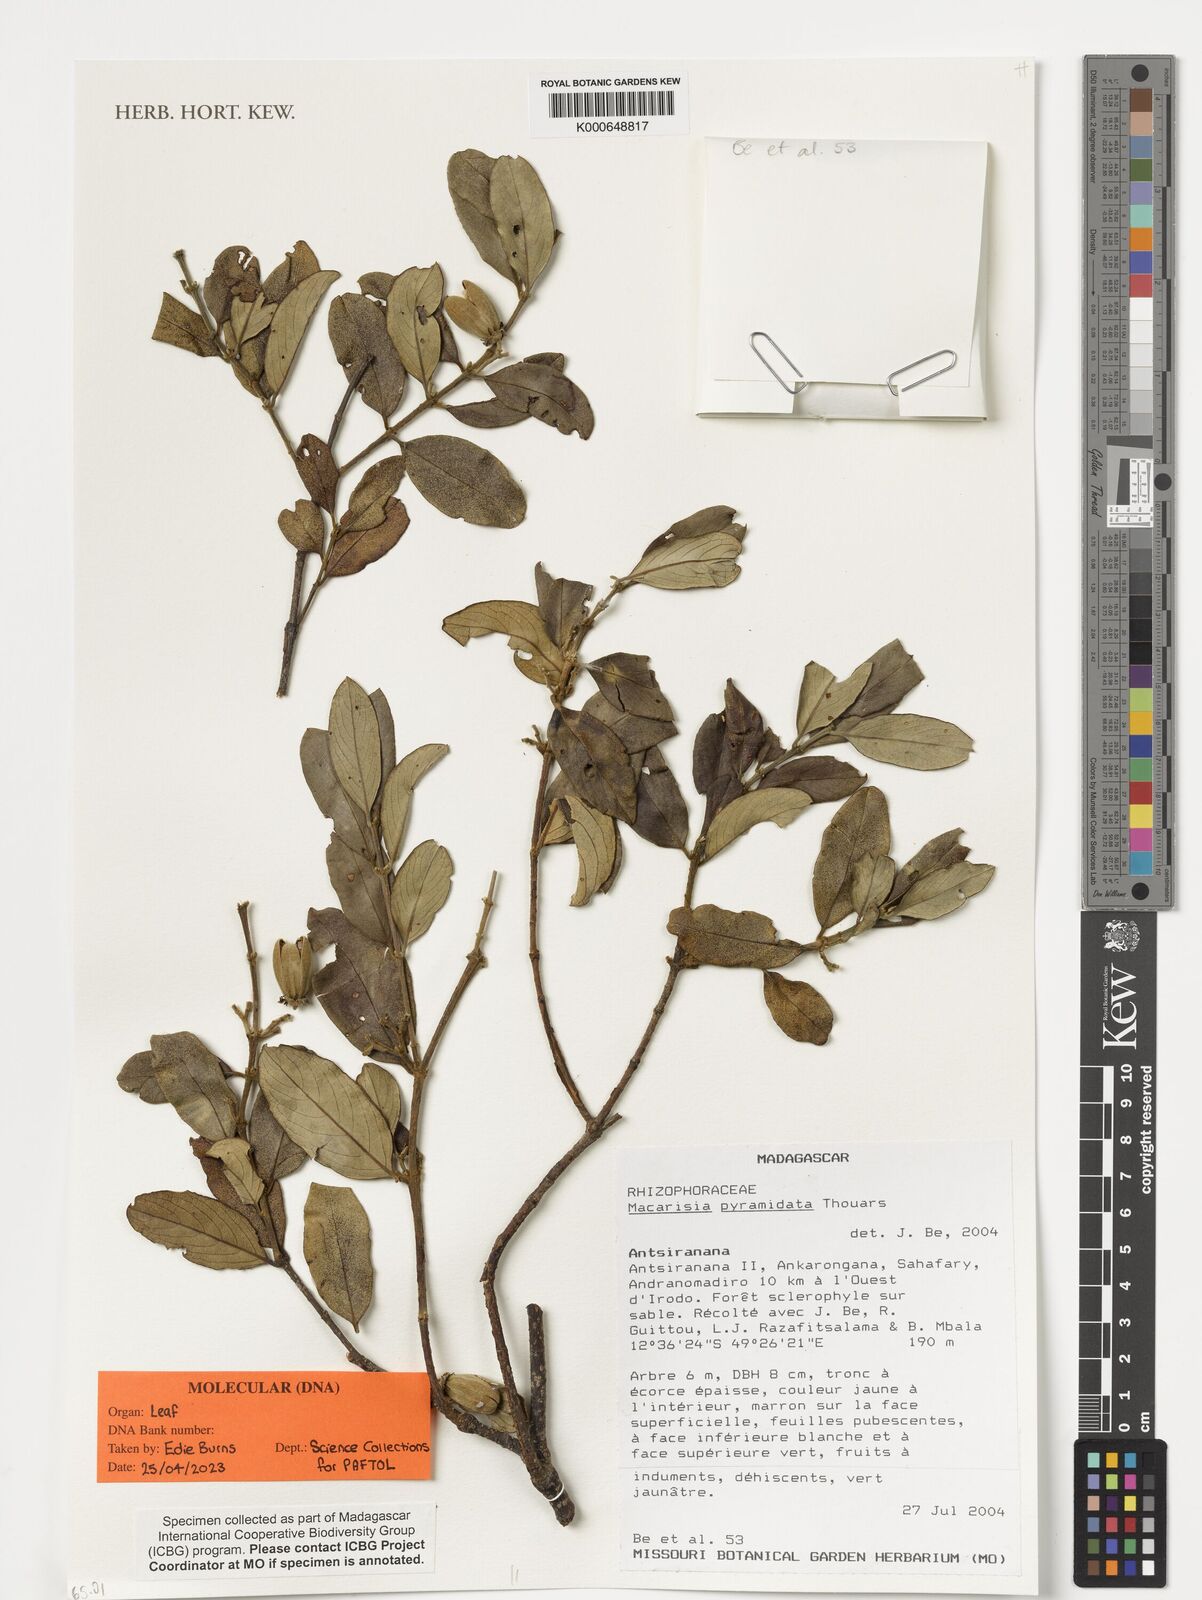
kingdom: Plantae
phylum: Tracheophyta
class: Magnoliopsida
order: Malpighiales
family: Rhizophoraceae
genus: Macarisia
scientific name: Macarisia pyramidata
